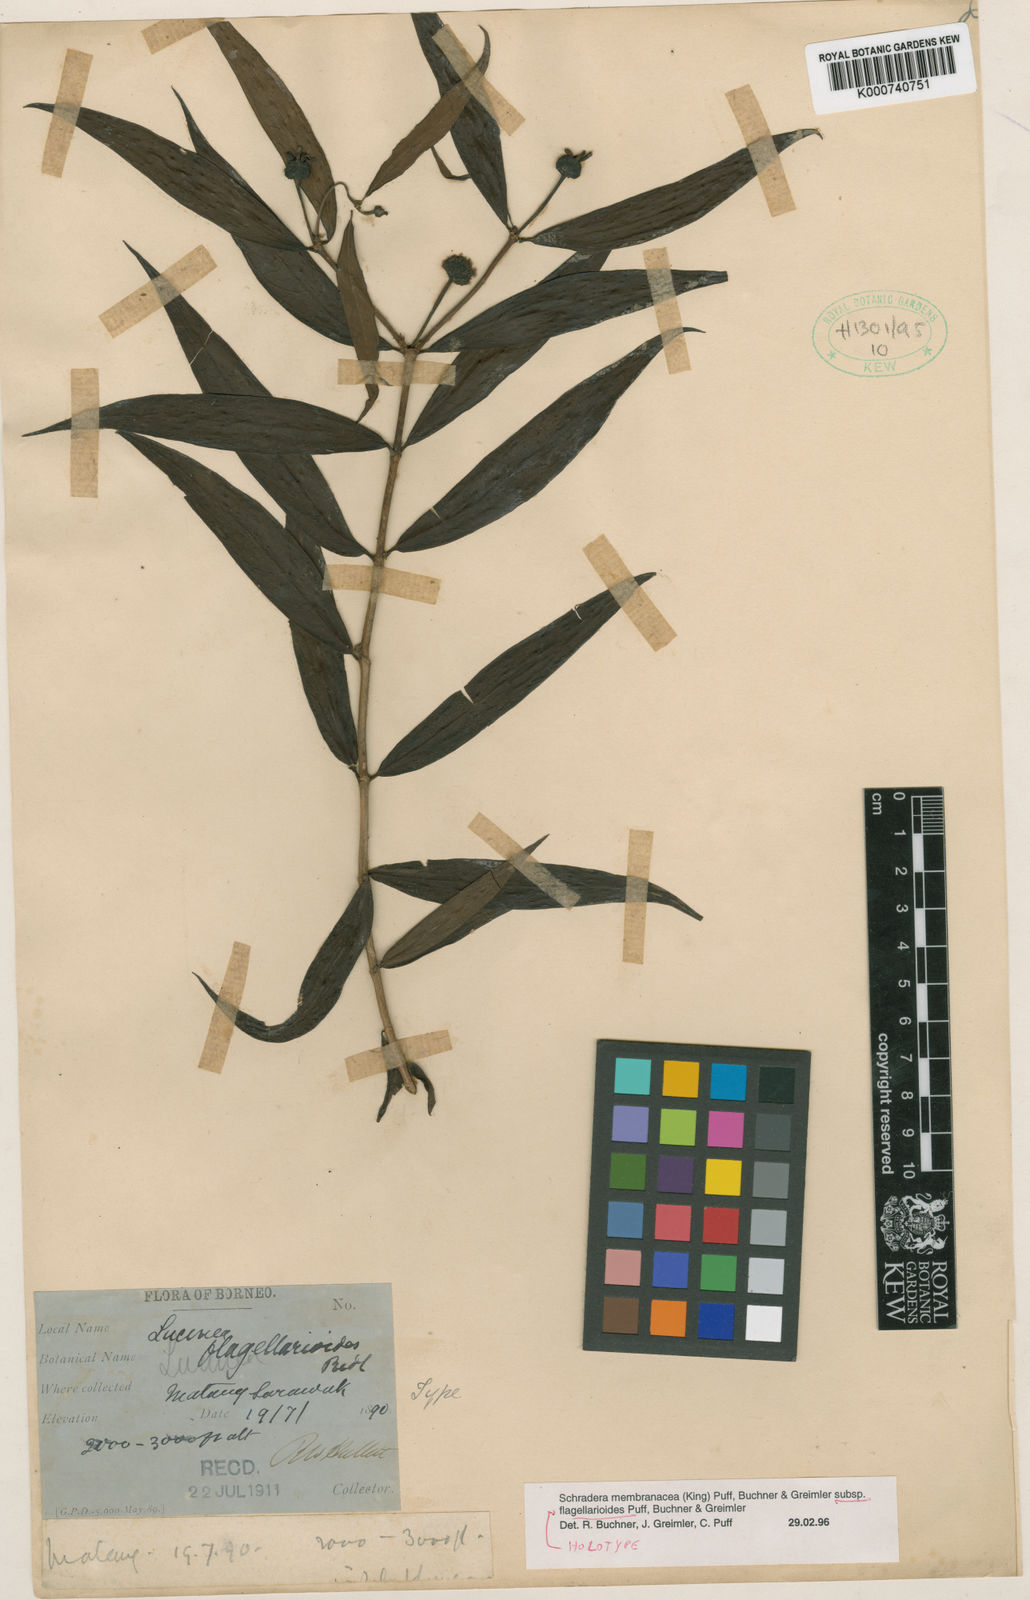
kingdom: Plantae
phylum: Tracheophyta
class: Magnoliopsida
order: Gentianales
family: Rubiaceae
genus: Schradera
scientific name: Schradera
